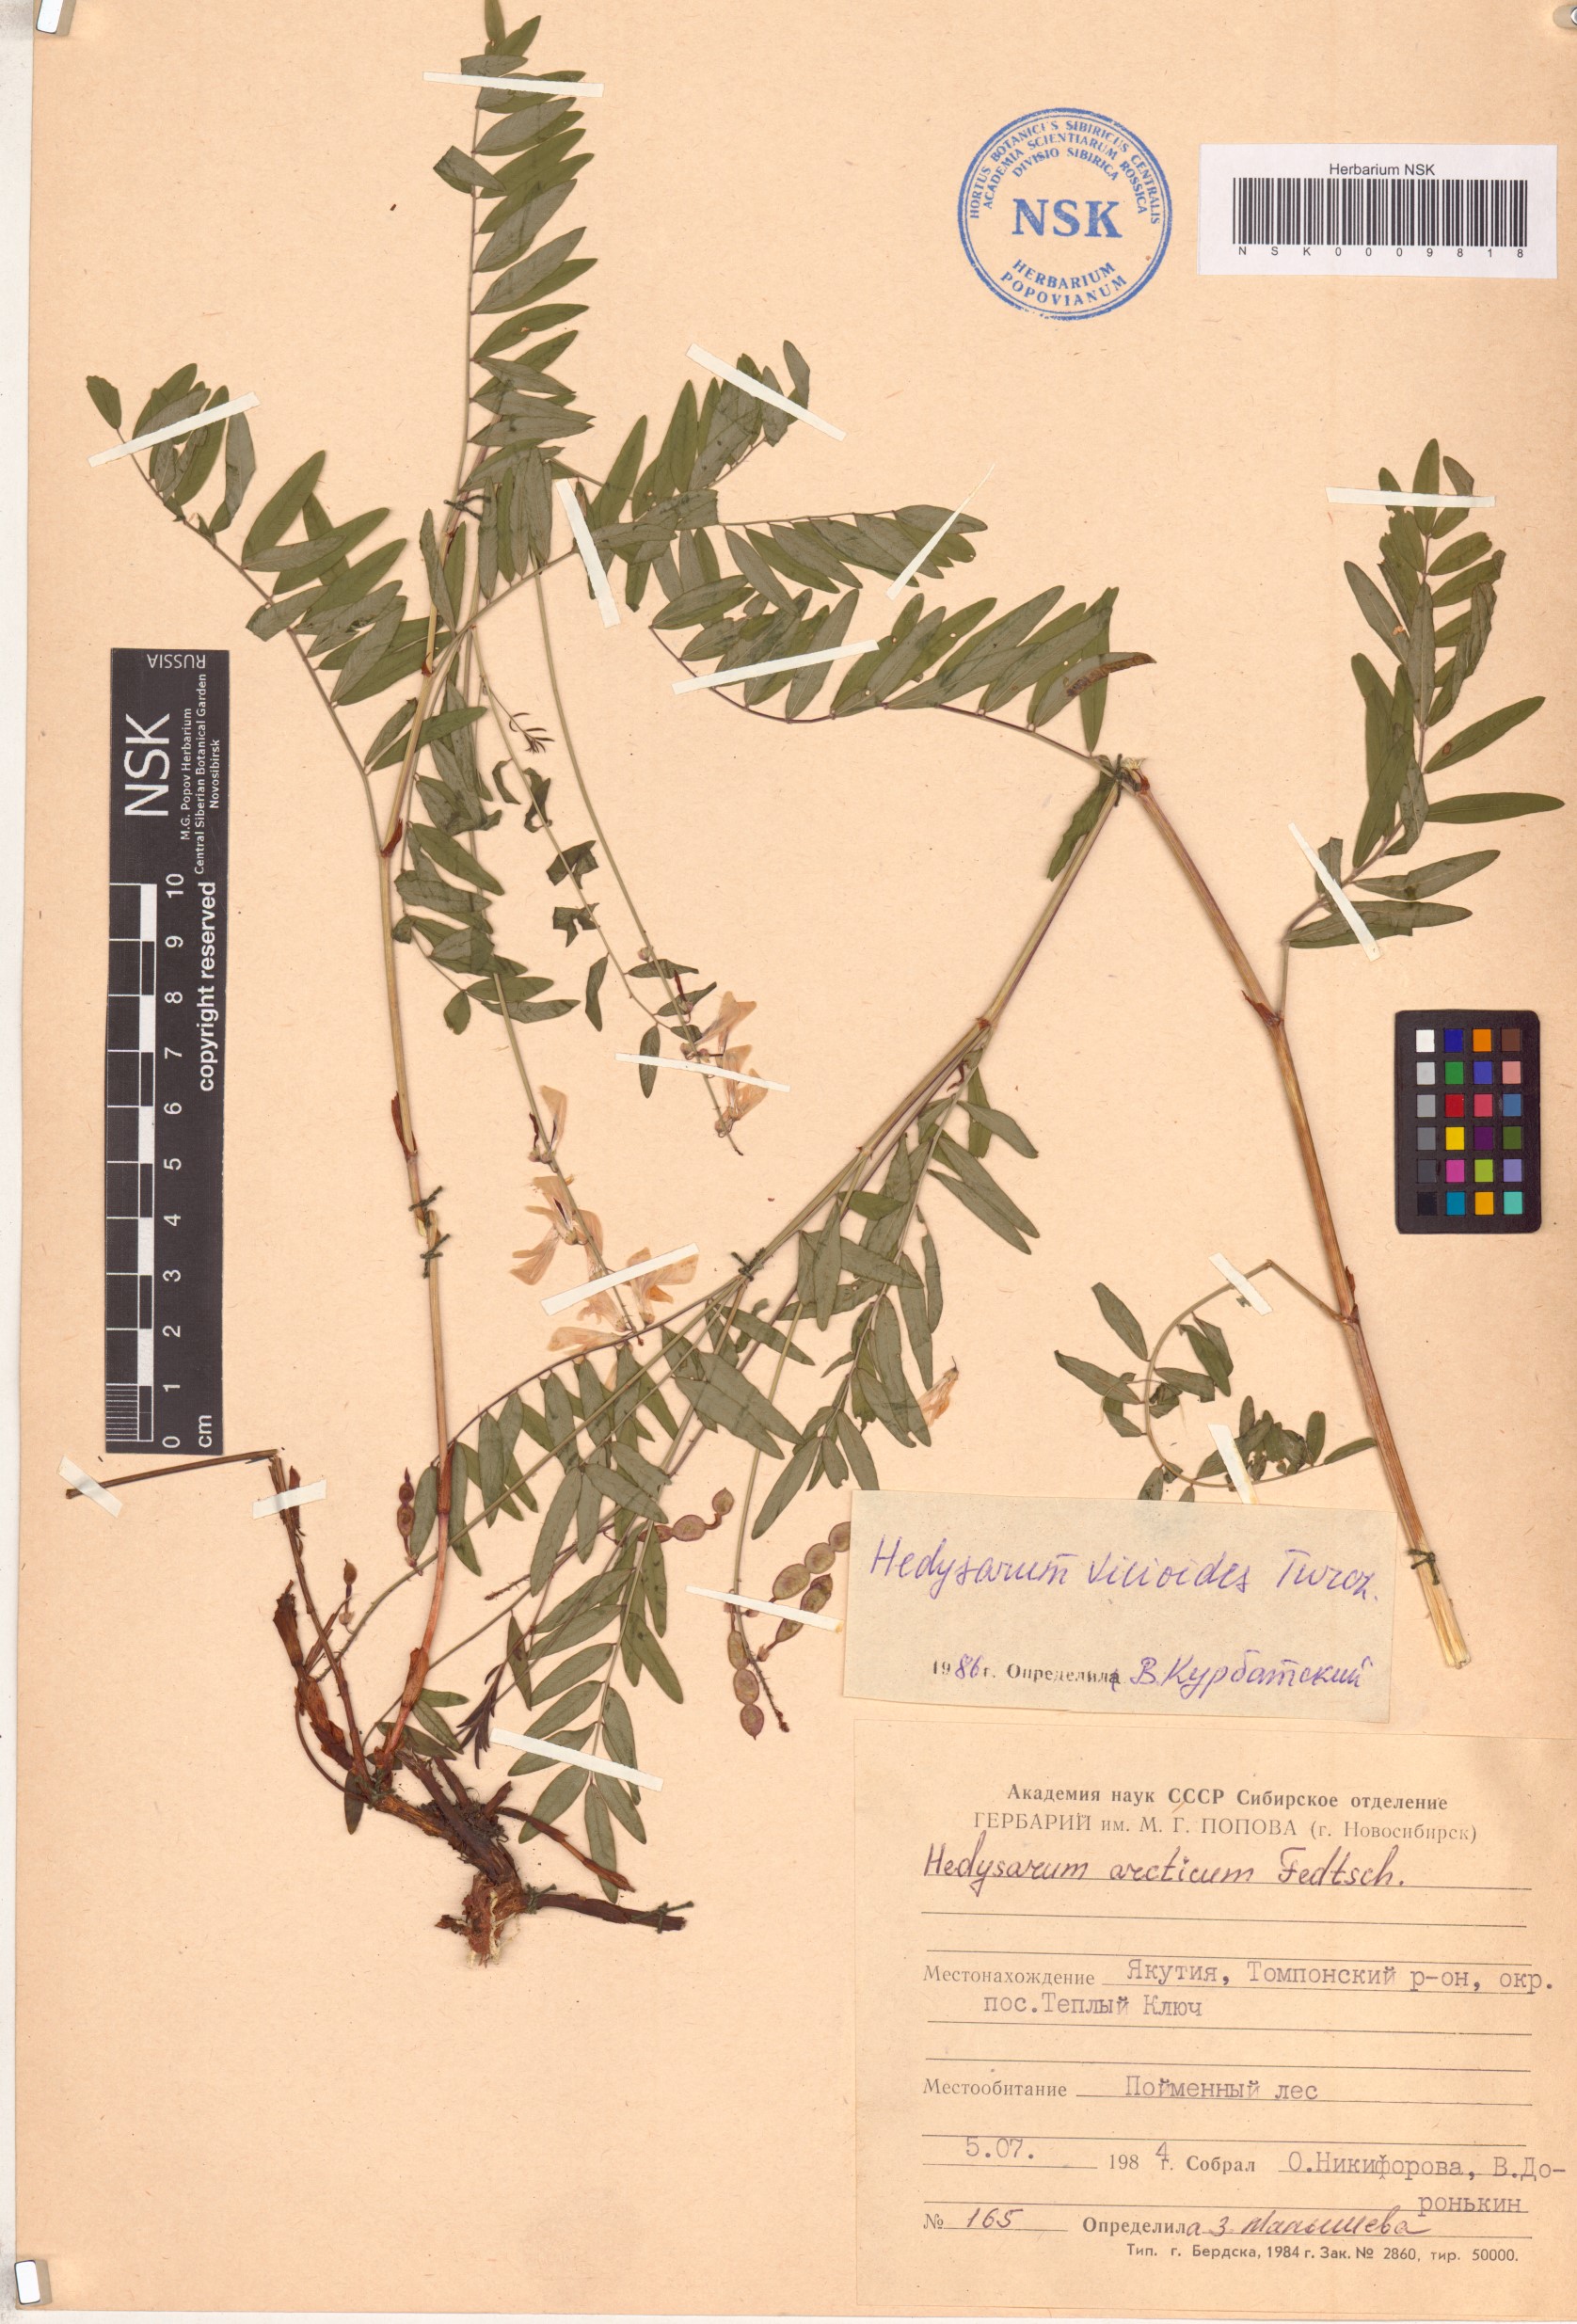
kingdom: Plantae
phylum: Tracheophyta
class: Magnoliopsida
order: Fabales
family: Fabaceae
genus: Hedysarum
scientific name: Hedysarum vicioides
